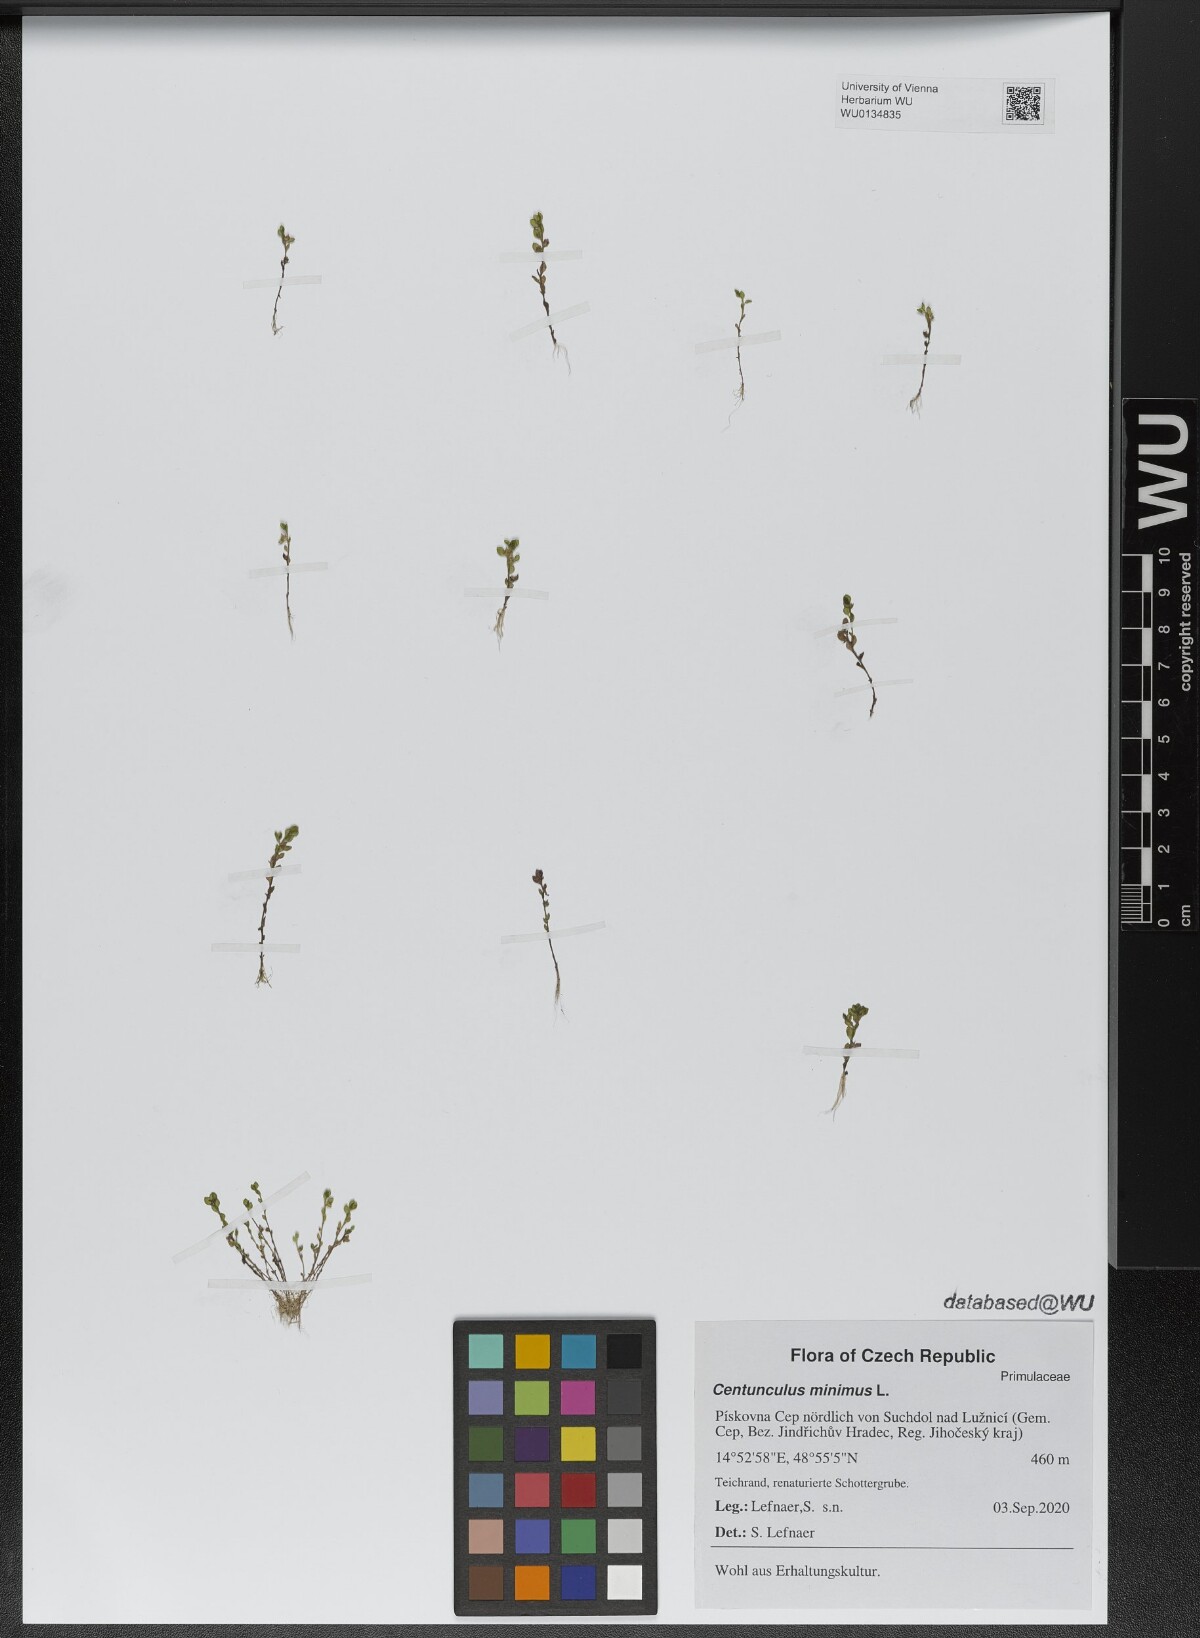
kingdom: Plantae
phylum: Tracheophyta
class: Magnoliopsida
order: Ericales
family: Primulaceae
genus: Lysimachia
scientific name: Lysimachia minima
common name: Chaffweed
